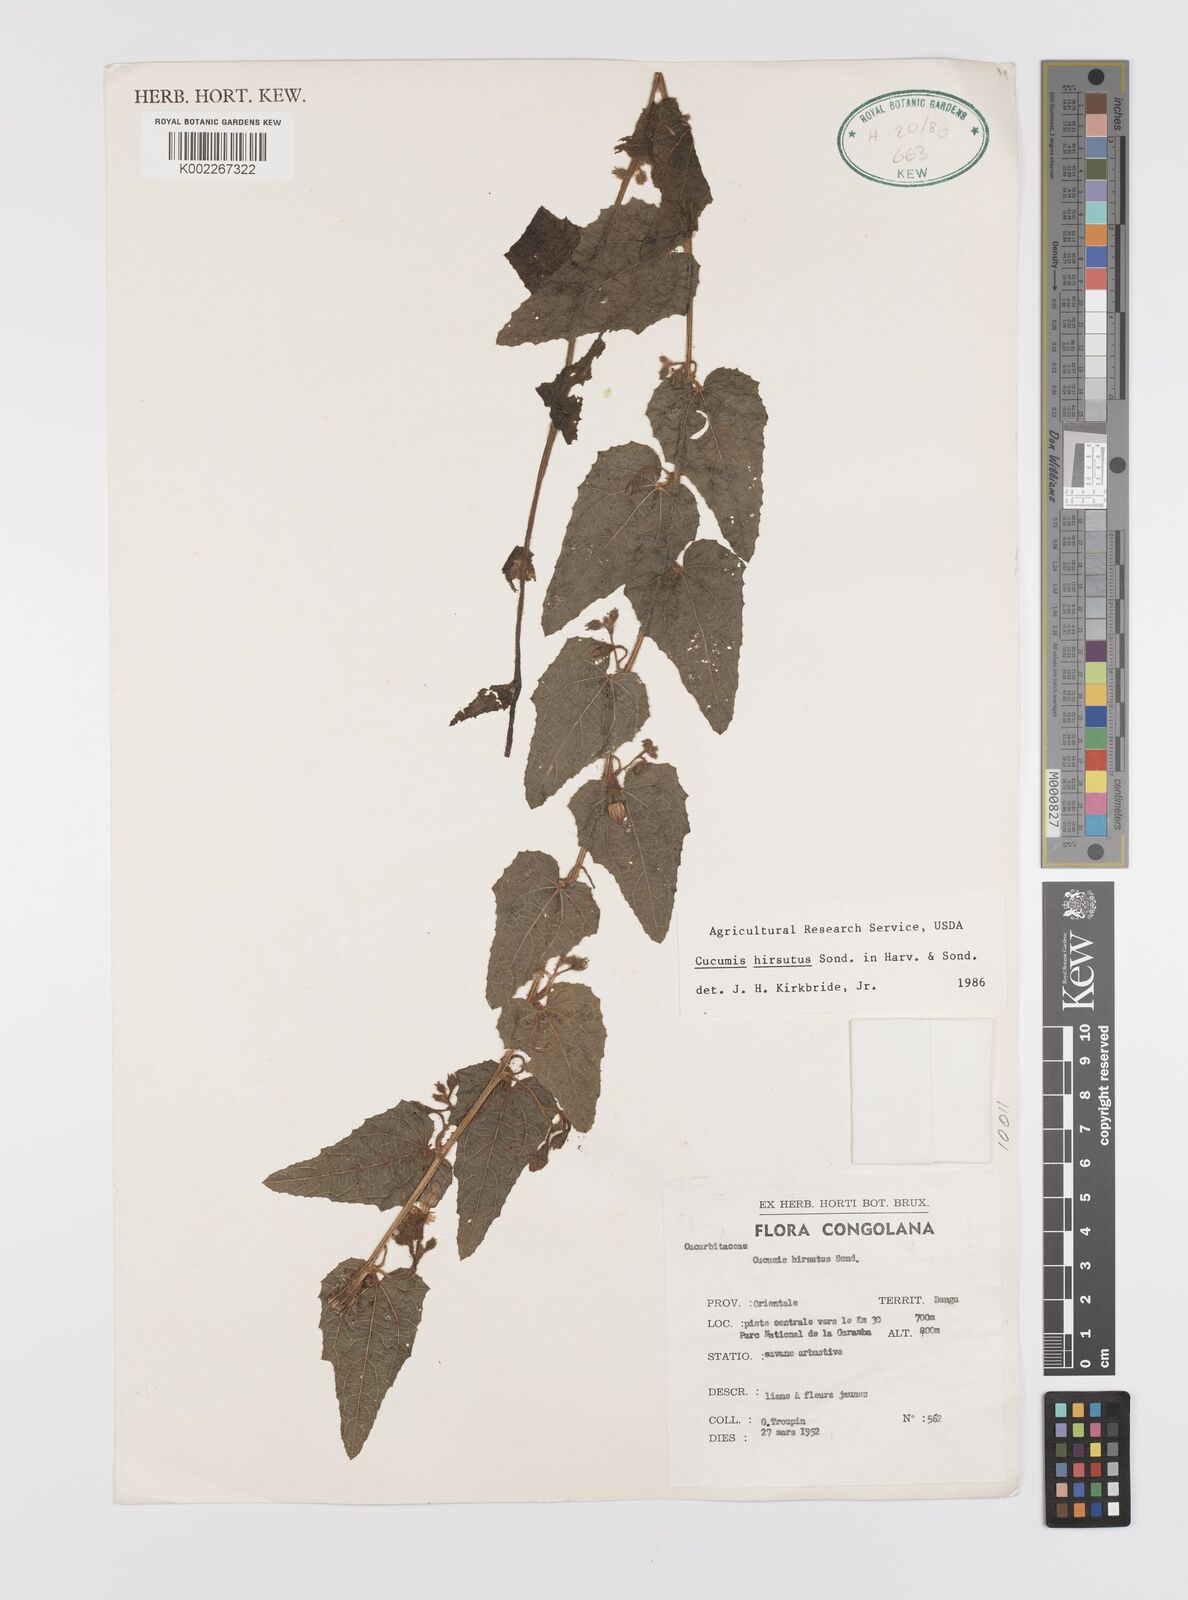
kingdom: Plantae
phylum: Tracheophyta
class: Magnoliopsida
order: Cucurbitales
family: Cucurbitaceae
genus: Cucumis
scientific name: Cucumis hirsutus
